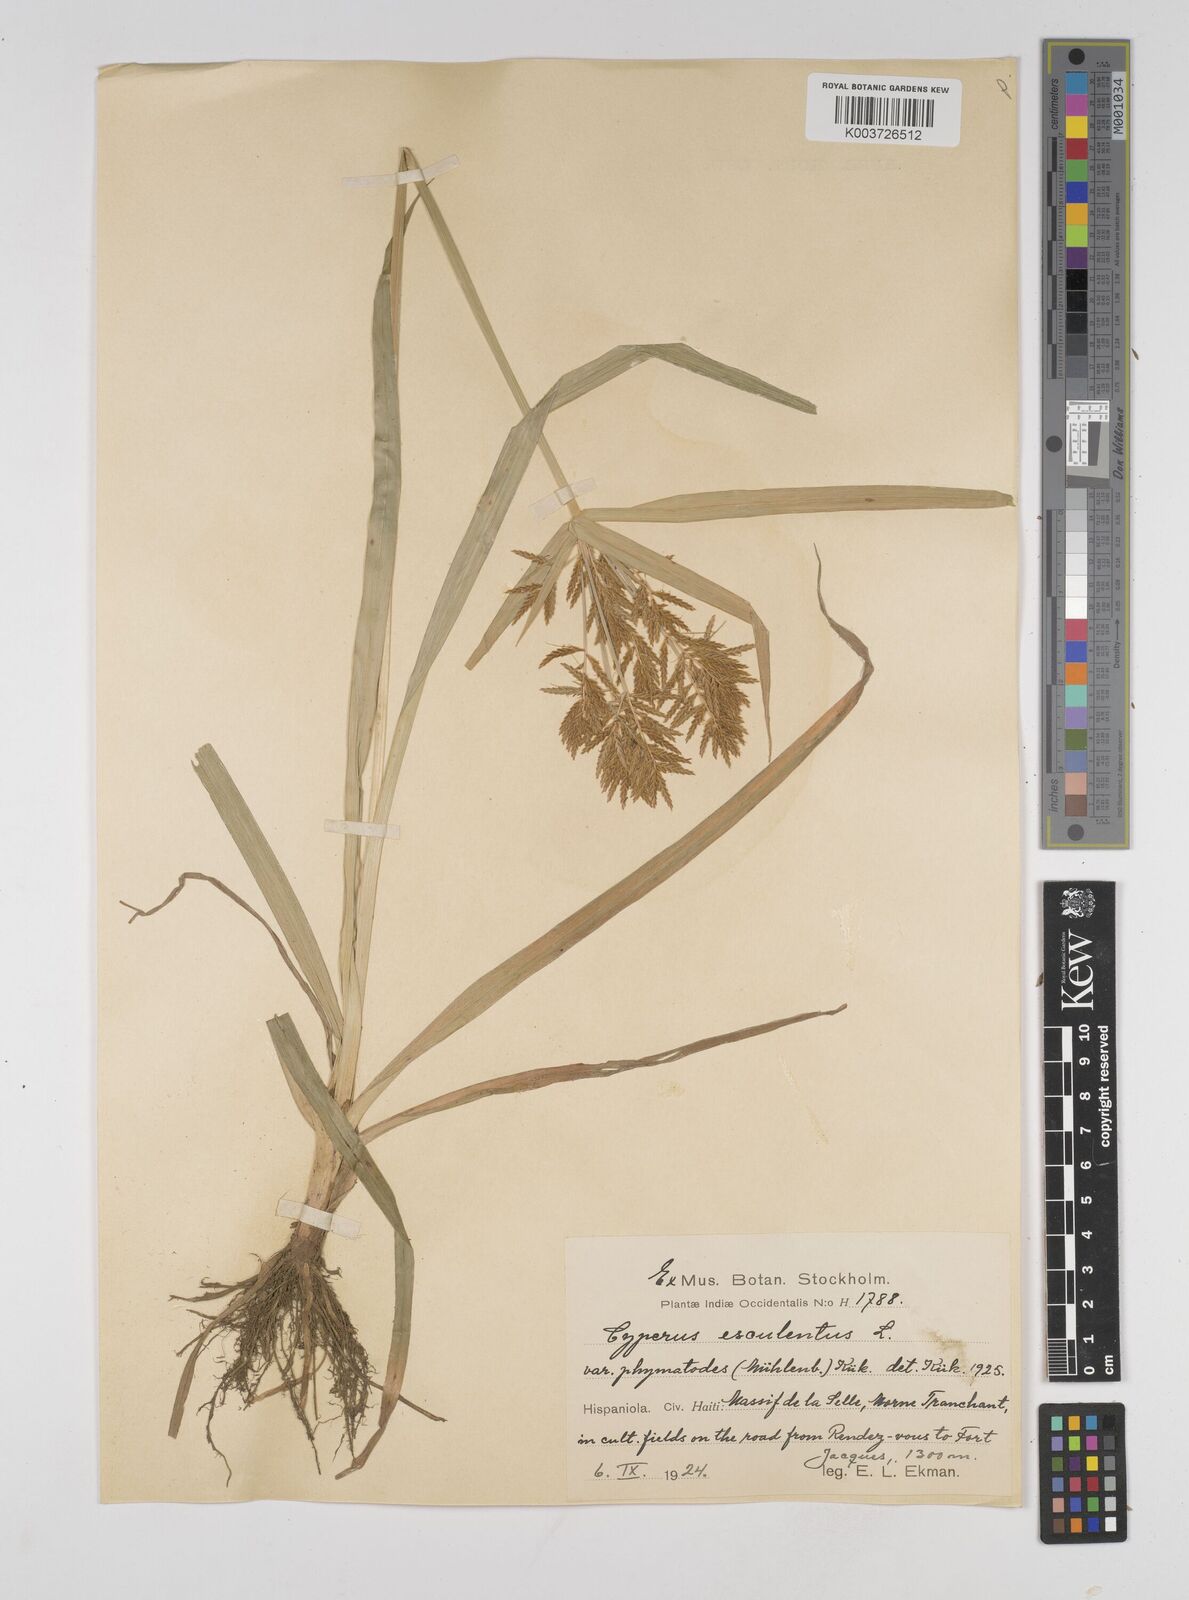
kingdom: Plantae
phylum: Tracheophyta
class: Liliopsida
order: Poales
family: Cyperaceae
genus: Cyperus
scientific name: Cyperus esculentus
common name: Yellow nutsedge
